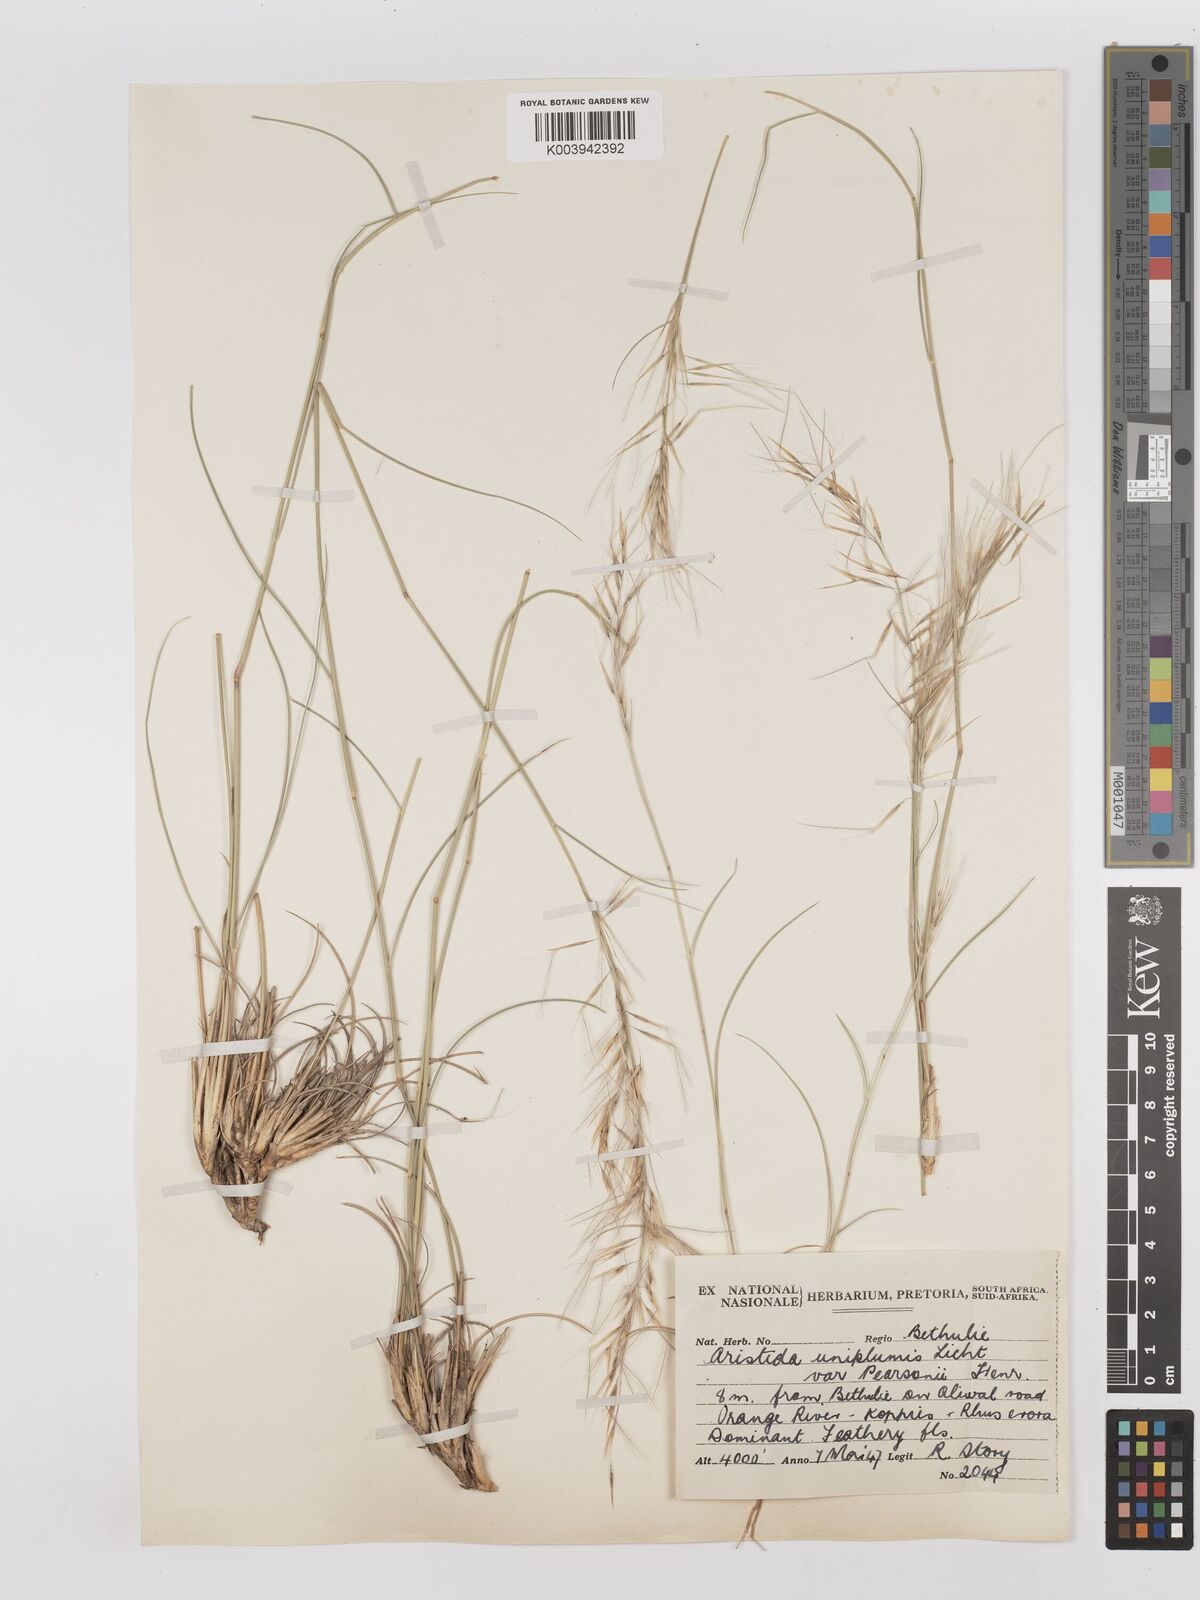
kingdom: Plantae
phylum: Tracheophyta
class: Liliopsida
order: Poales
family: Poaceae
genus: Stipagrostis
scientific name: Stipagrostis uniplumis
